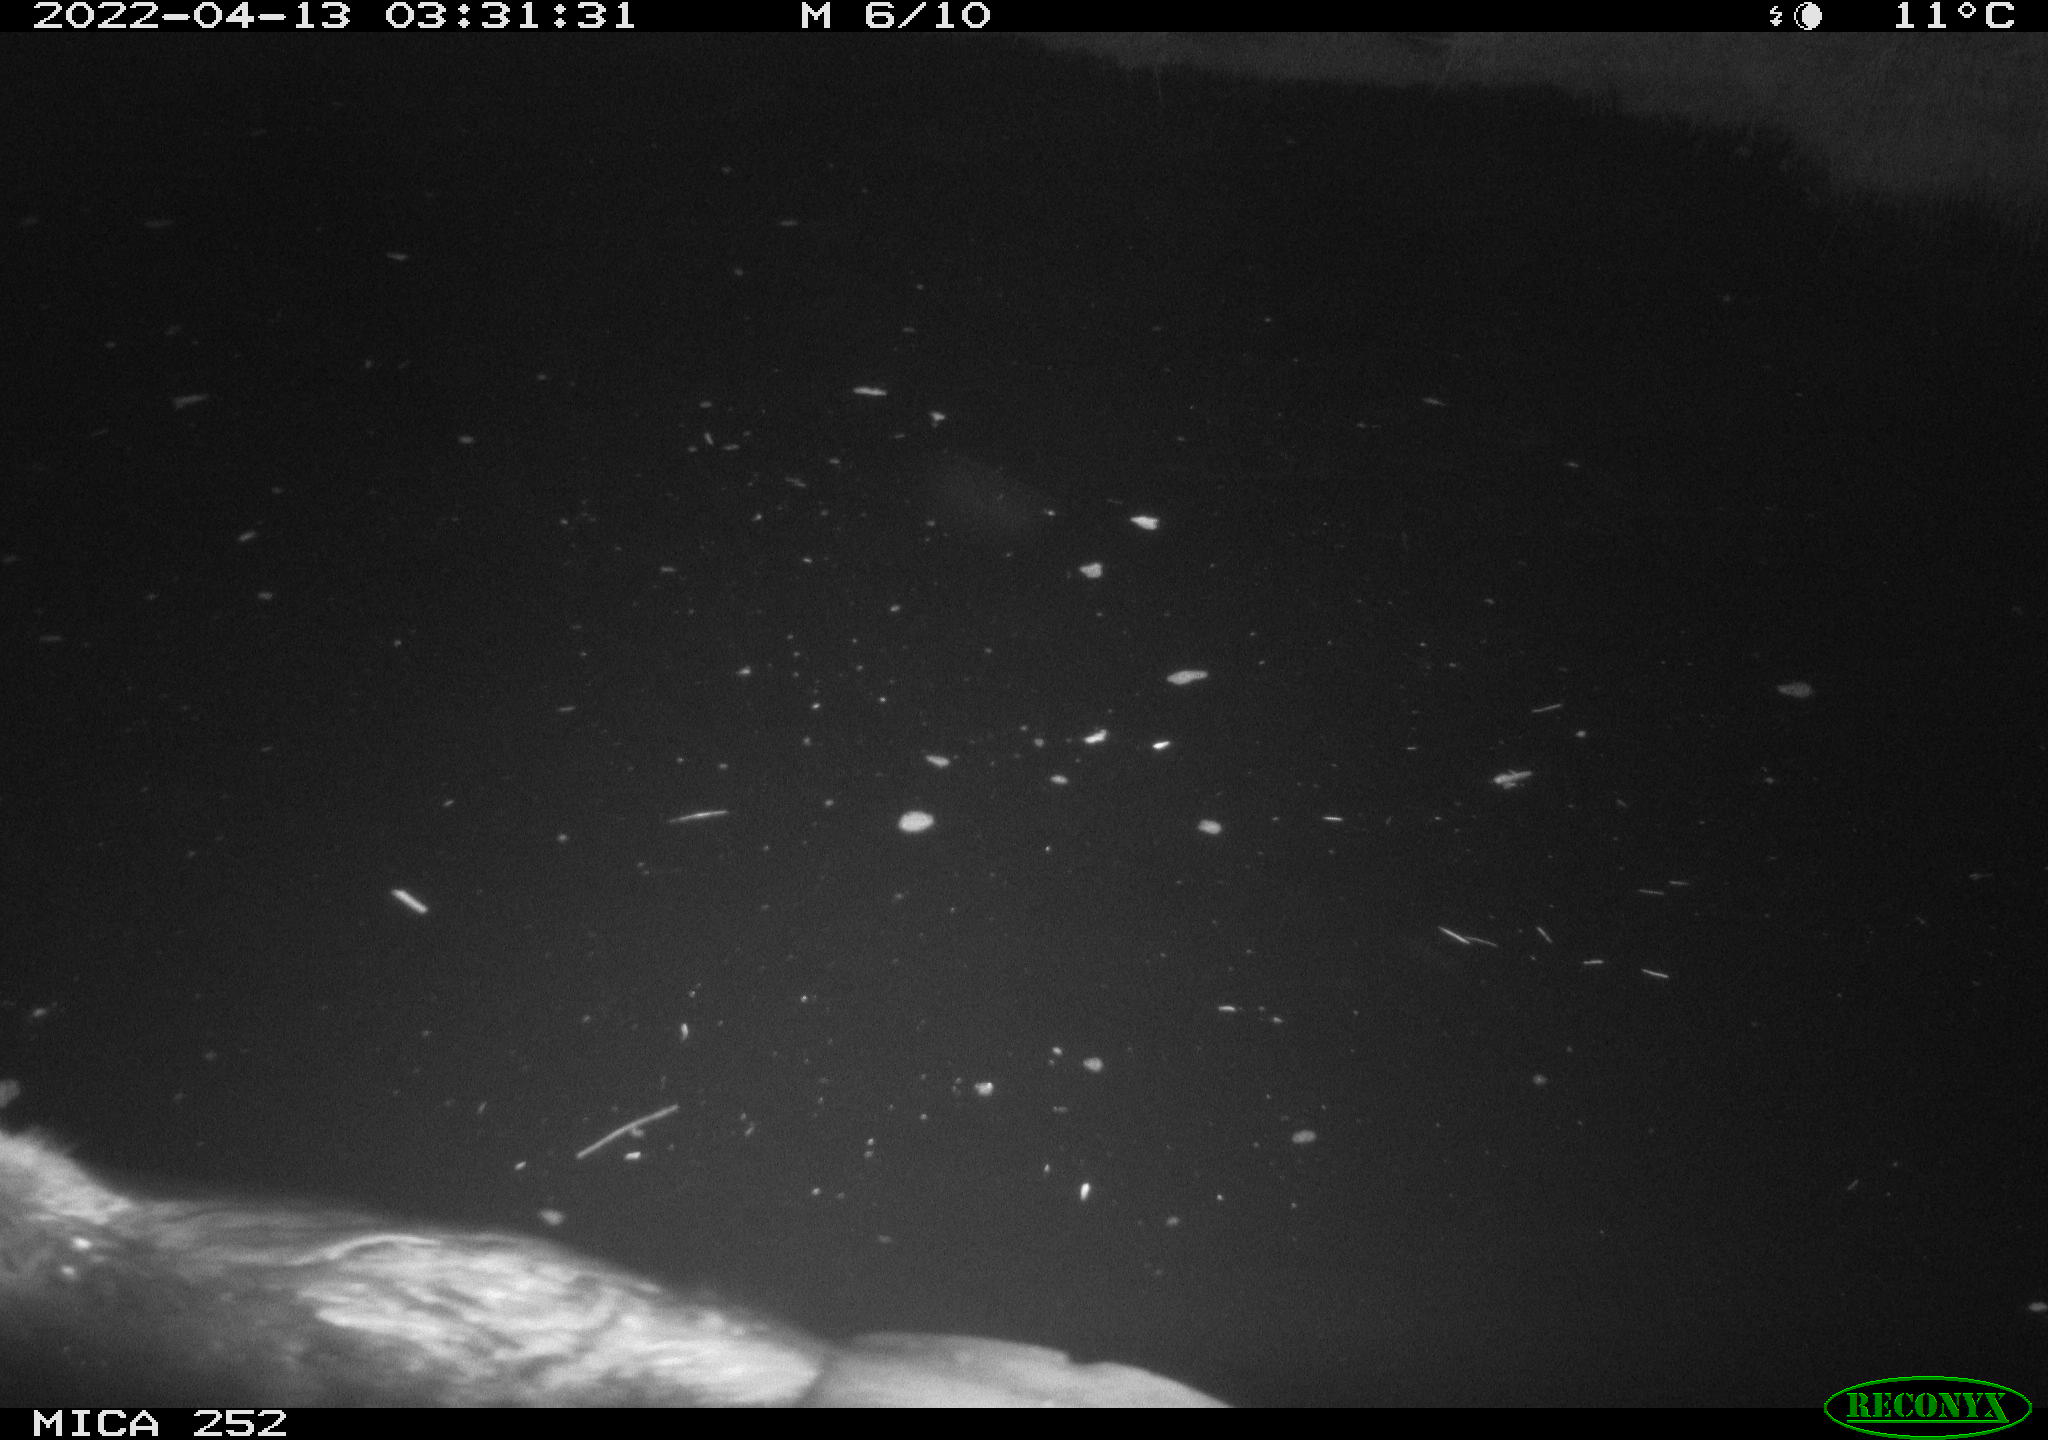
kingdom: Animalia
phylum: Chordata
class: Mammalia
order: Rodentia
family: Castoridae
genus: Castor
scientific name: Castor fiber
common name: Eurasian beaver
